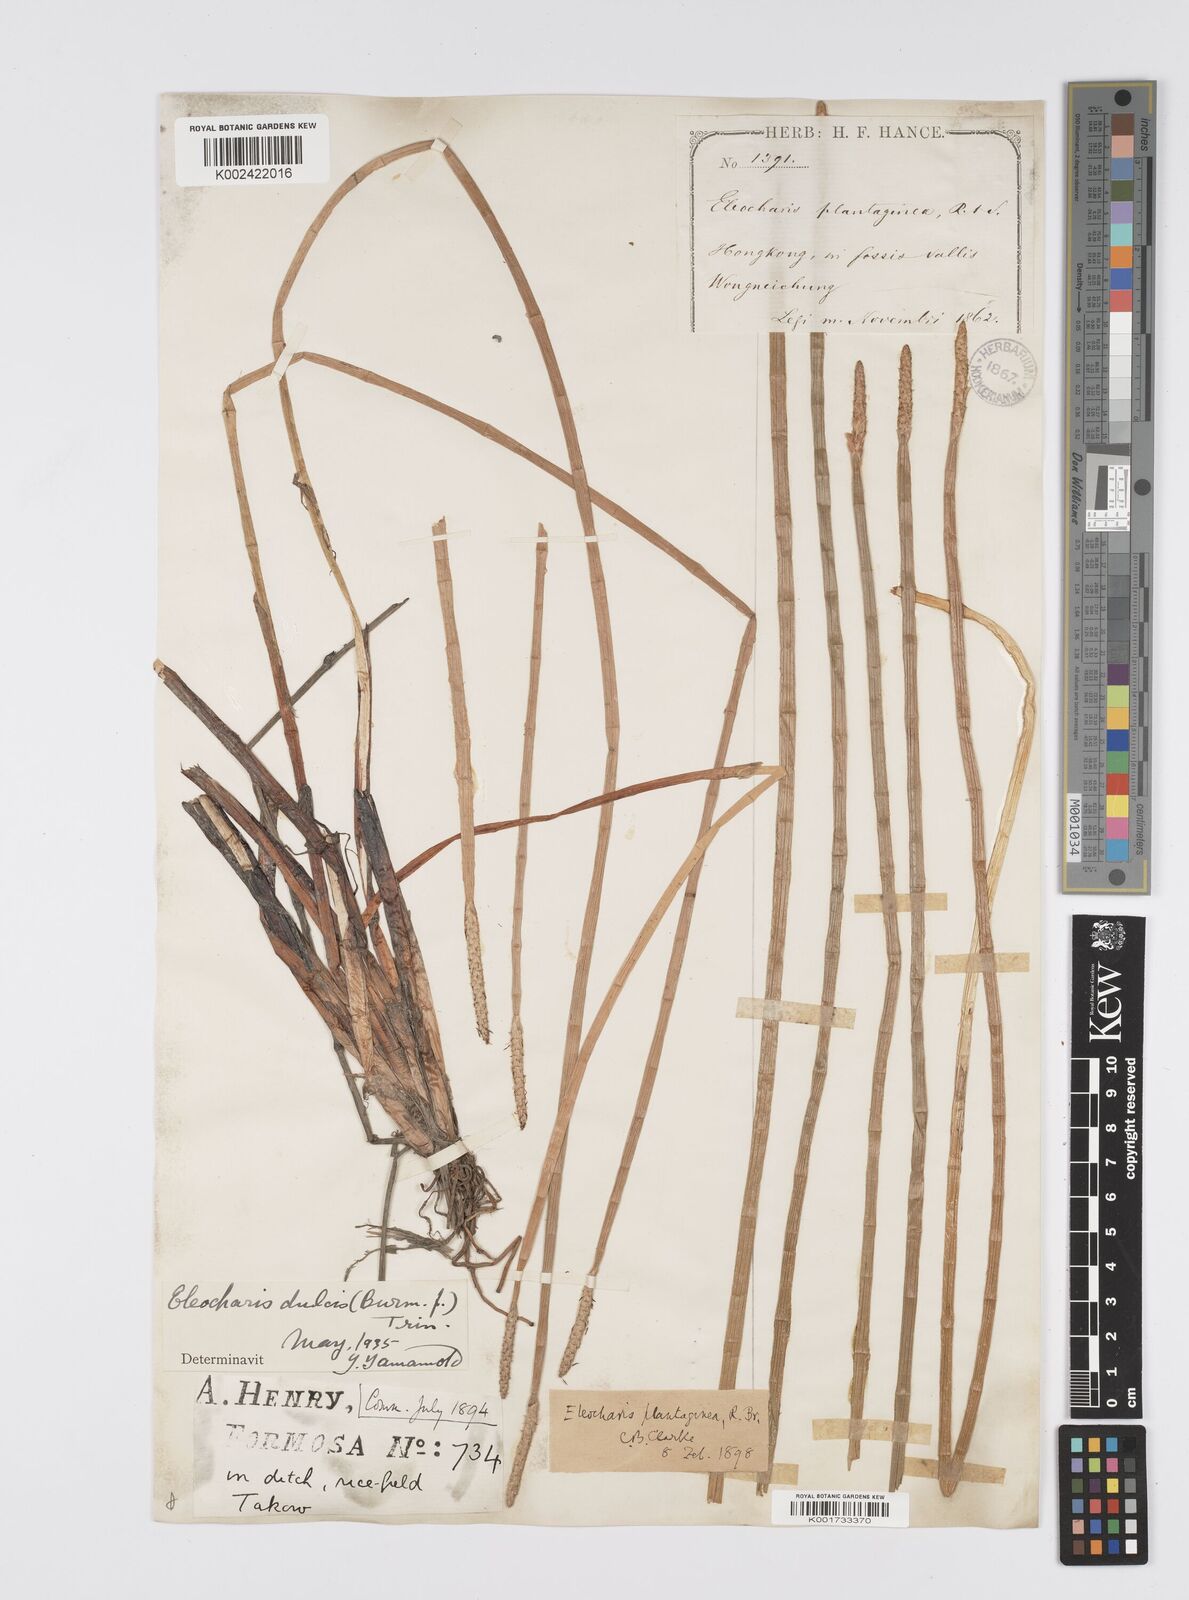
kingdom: Plantae
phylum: Tracheophyta
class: Liliopsida
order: Poales
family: Cyperaceae
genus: Eleocharis
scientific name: Eleocharis dulcis
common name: Chinese water chestnut
